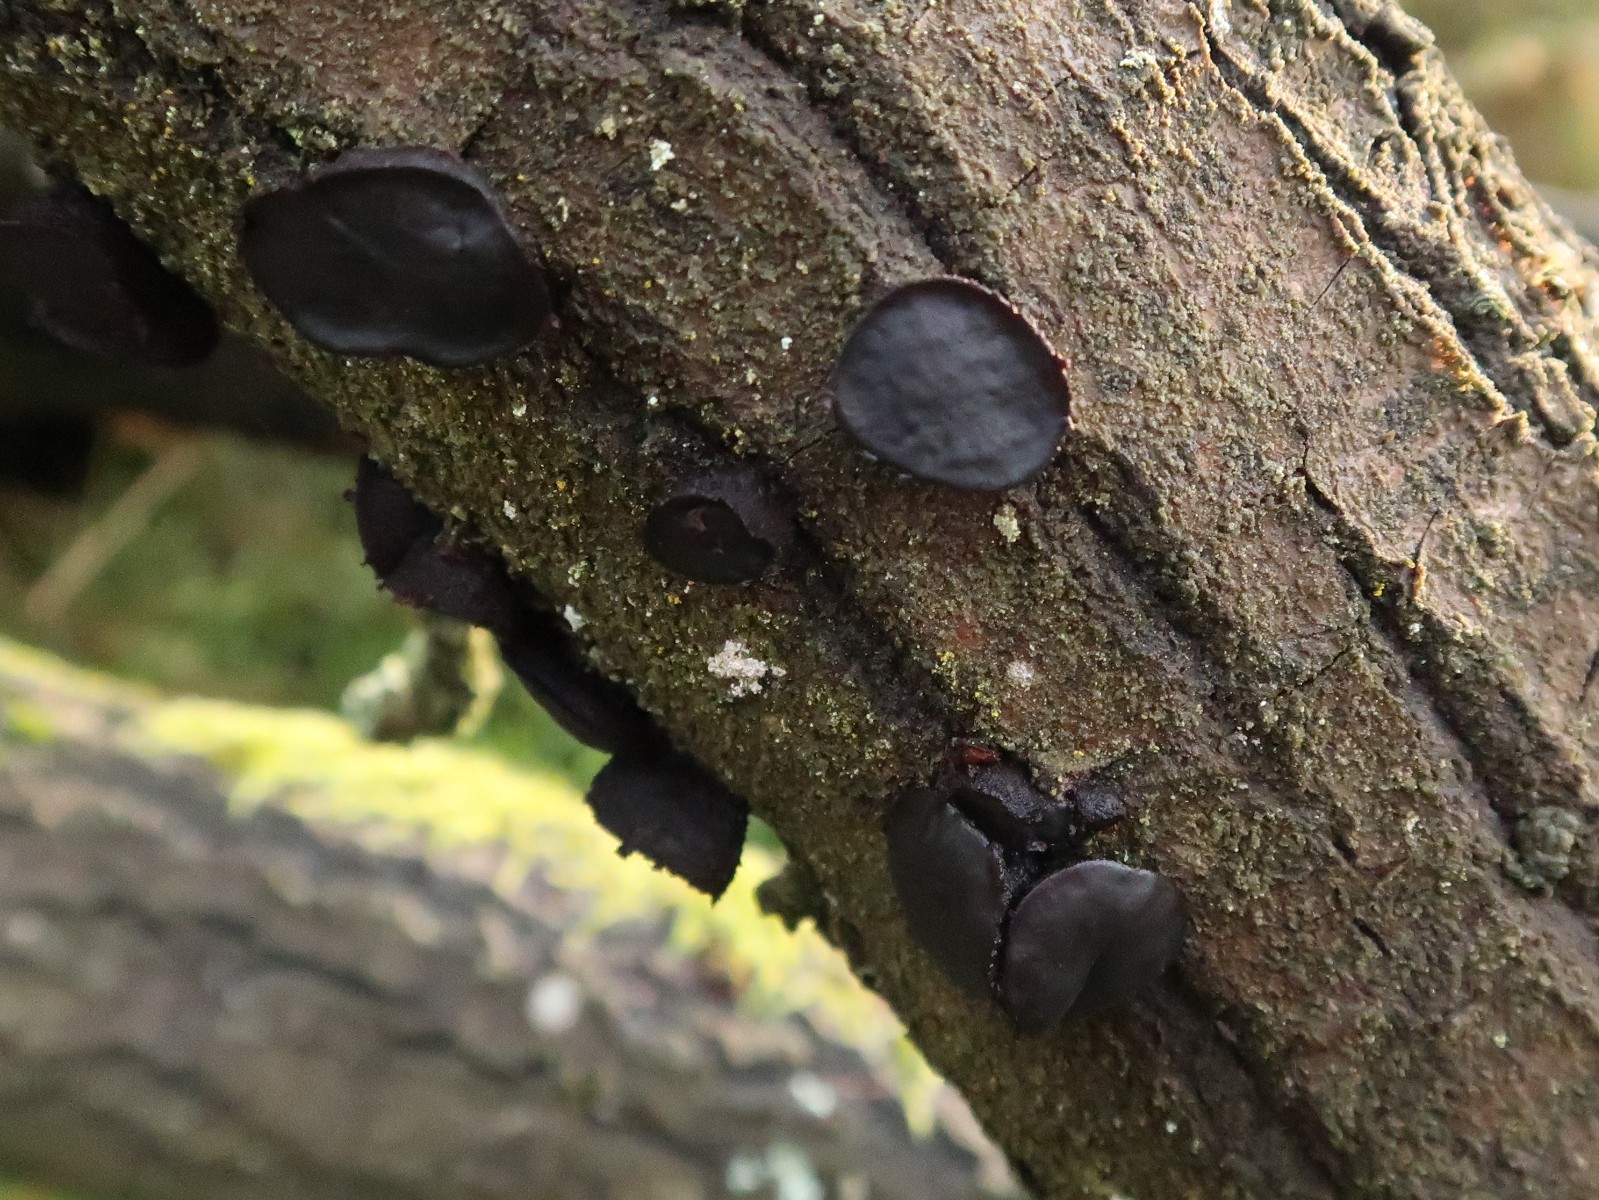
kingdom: Fungi
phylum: Ascomycota
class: Leotiomycetes
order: Phacidiales
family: Phacidiaceae
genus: Bulgaria
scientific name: Bulgaria inquinans
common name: afsmittende topsvamp
